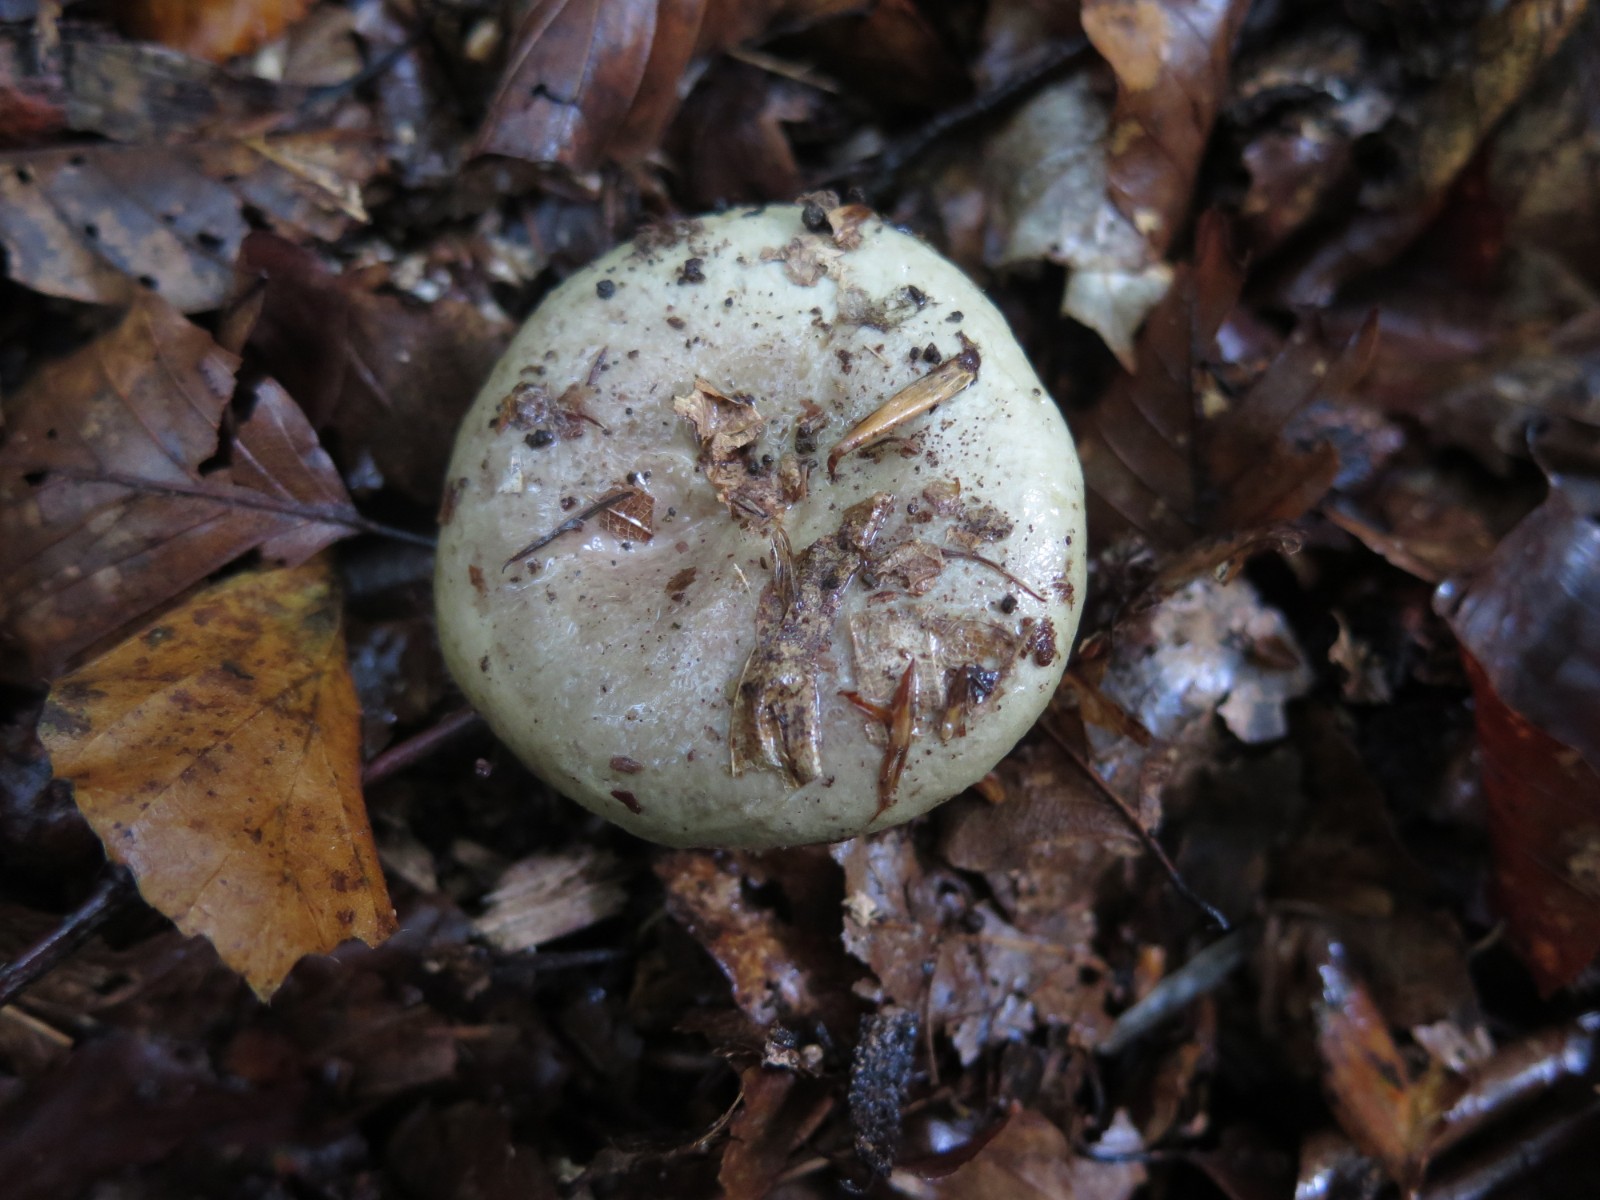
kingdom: Fungi
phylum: Basidiomycota
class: Agaricomycetes
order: Russulales
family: Russulaceae
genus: Lactarius
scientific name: Lactarius blennius
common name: dråbeplettet mælkehat
